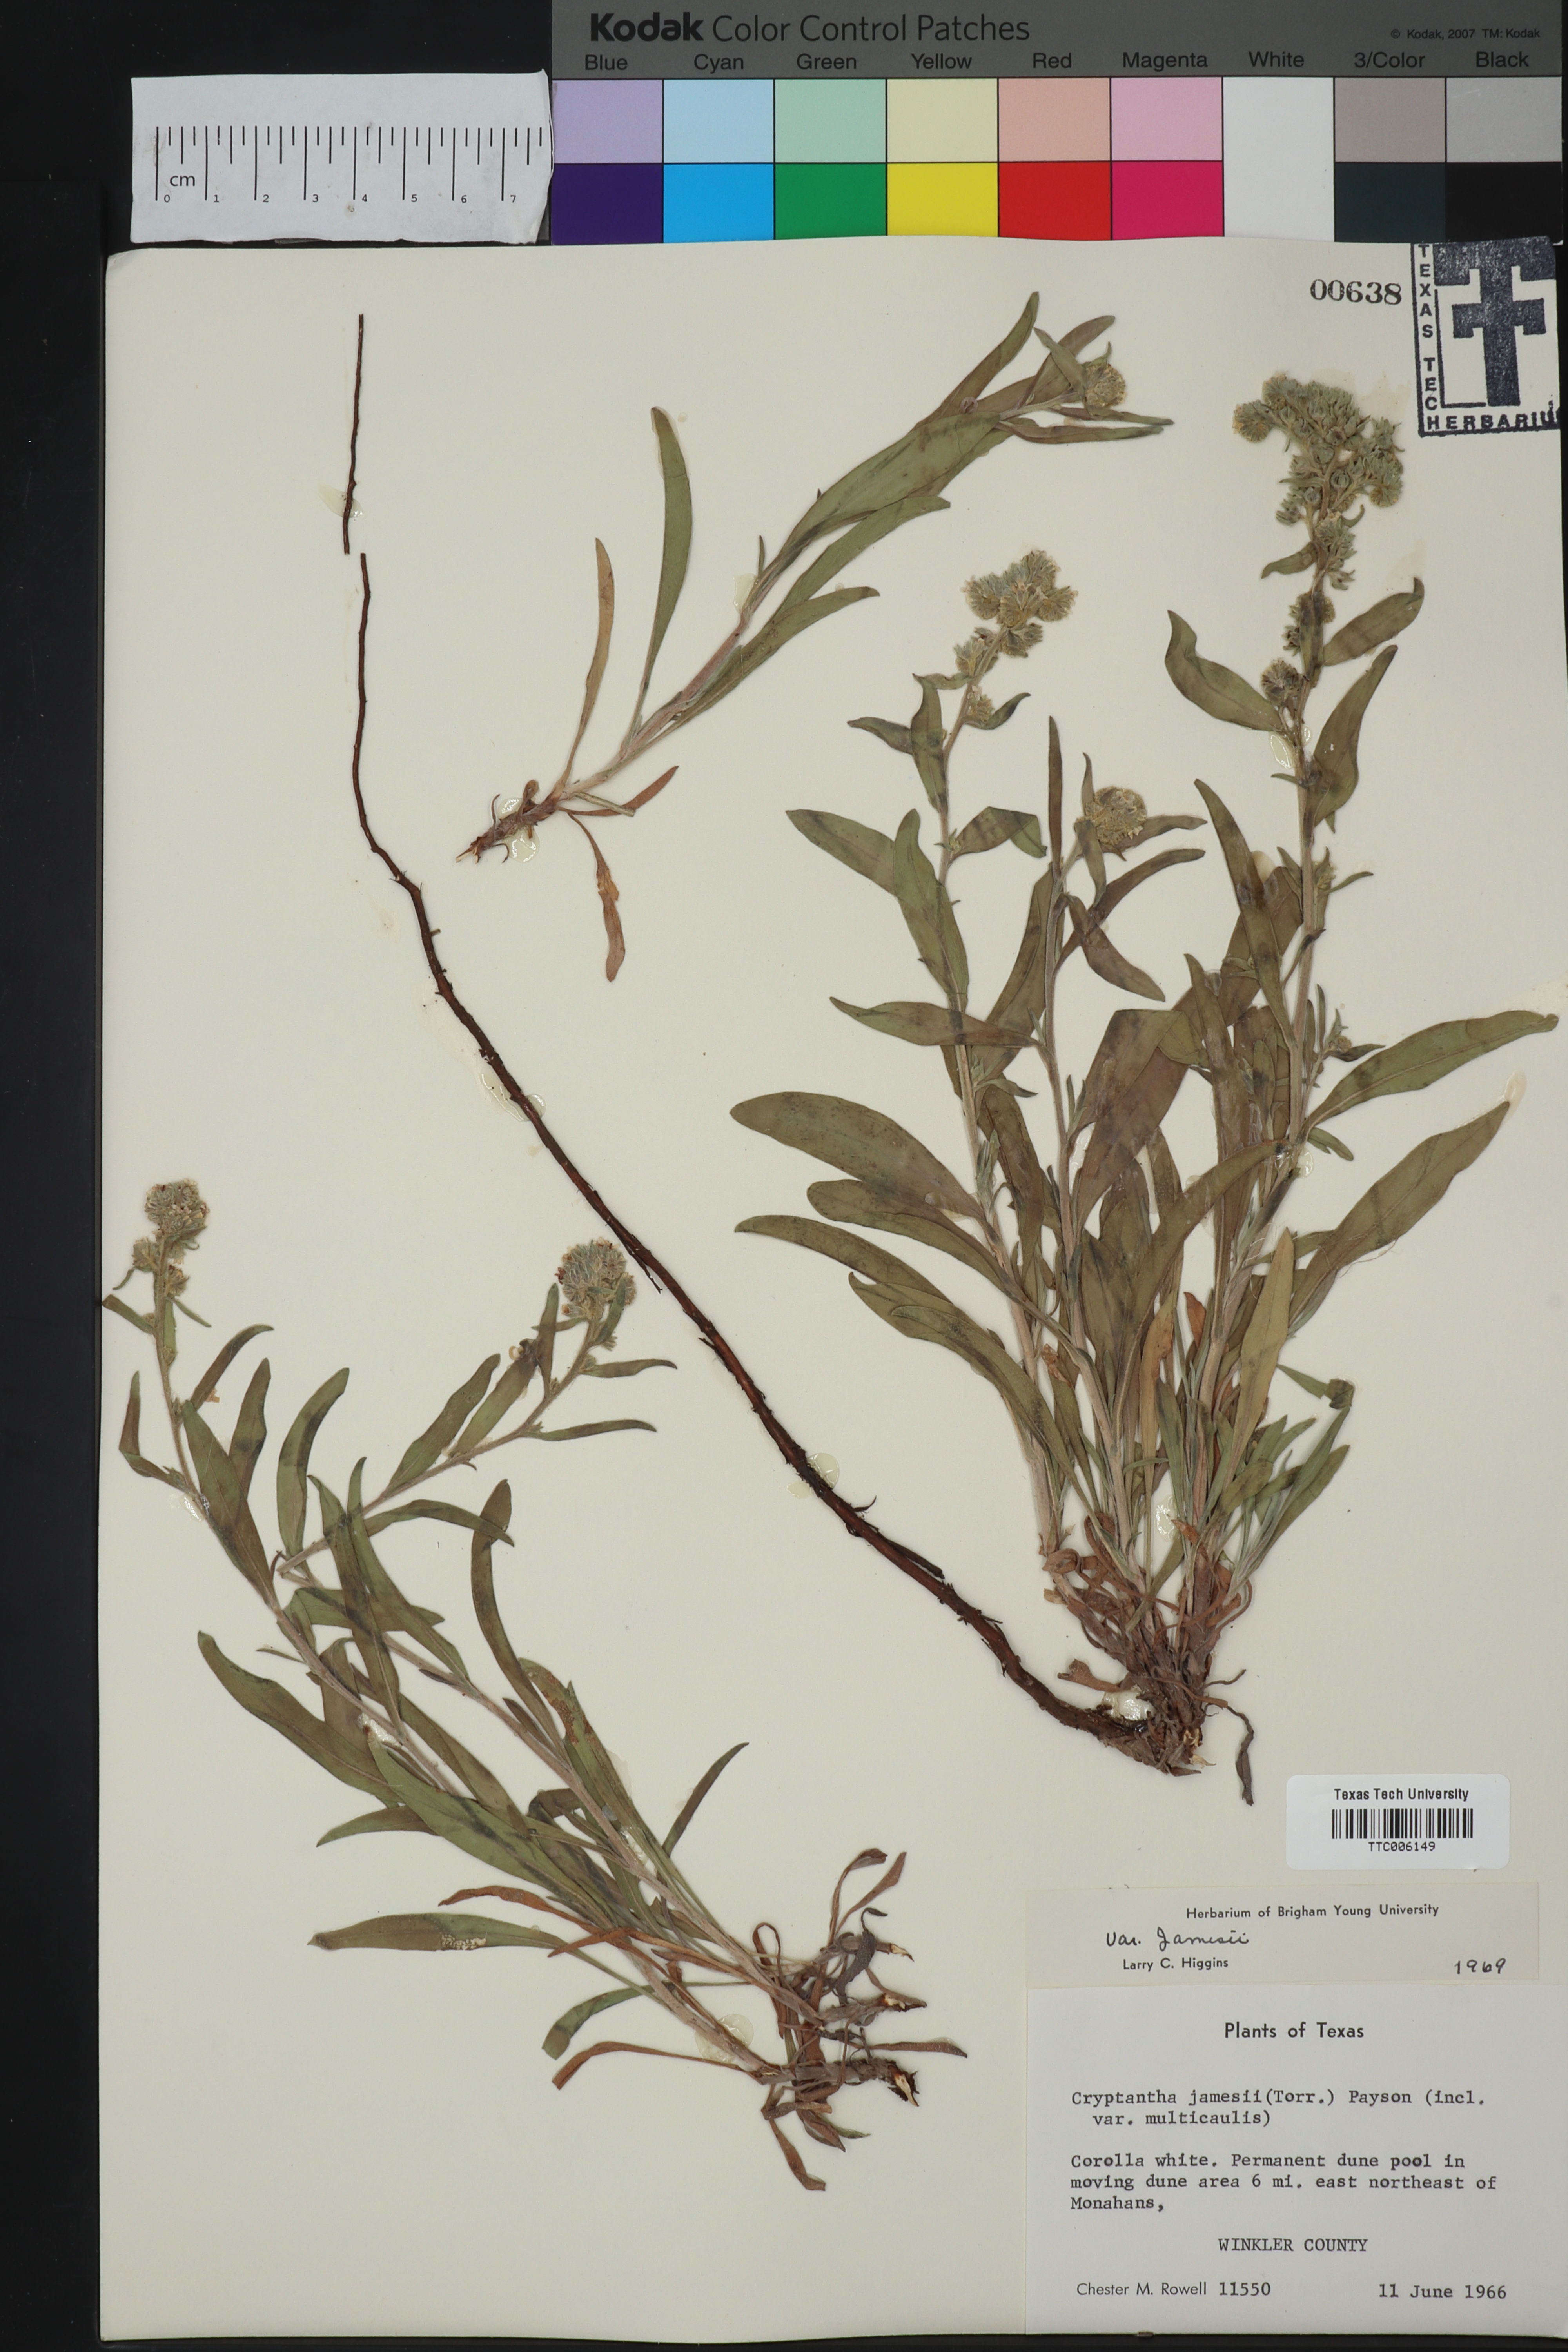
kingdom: Plantae
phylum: Tracheophyta
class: Magnoliopsida
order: Boraginales
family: Boraginaceae
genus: Oreocarya
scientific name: Oreocarya suffruticosa
